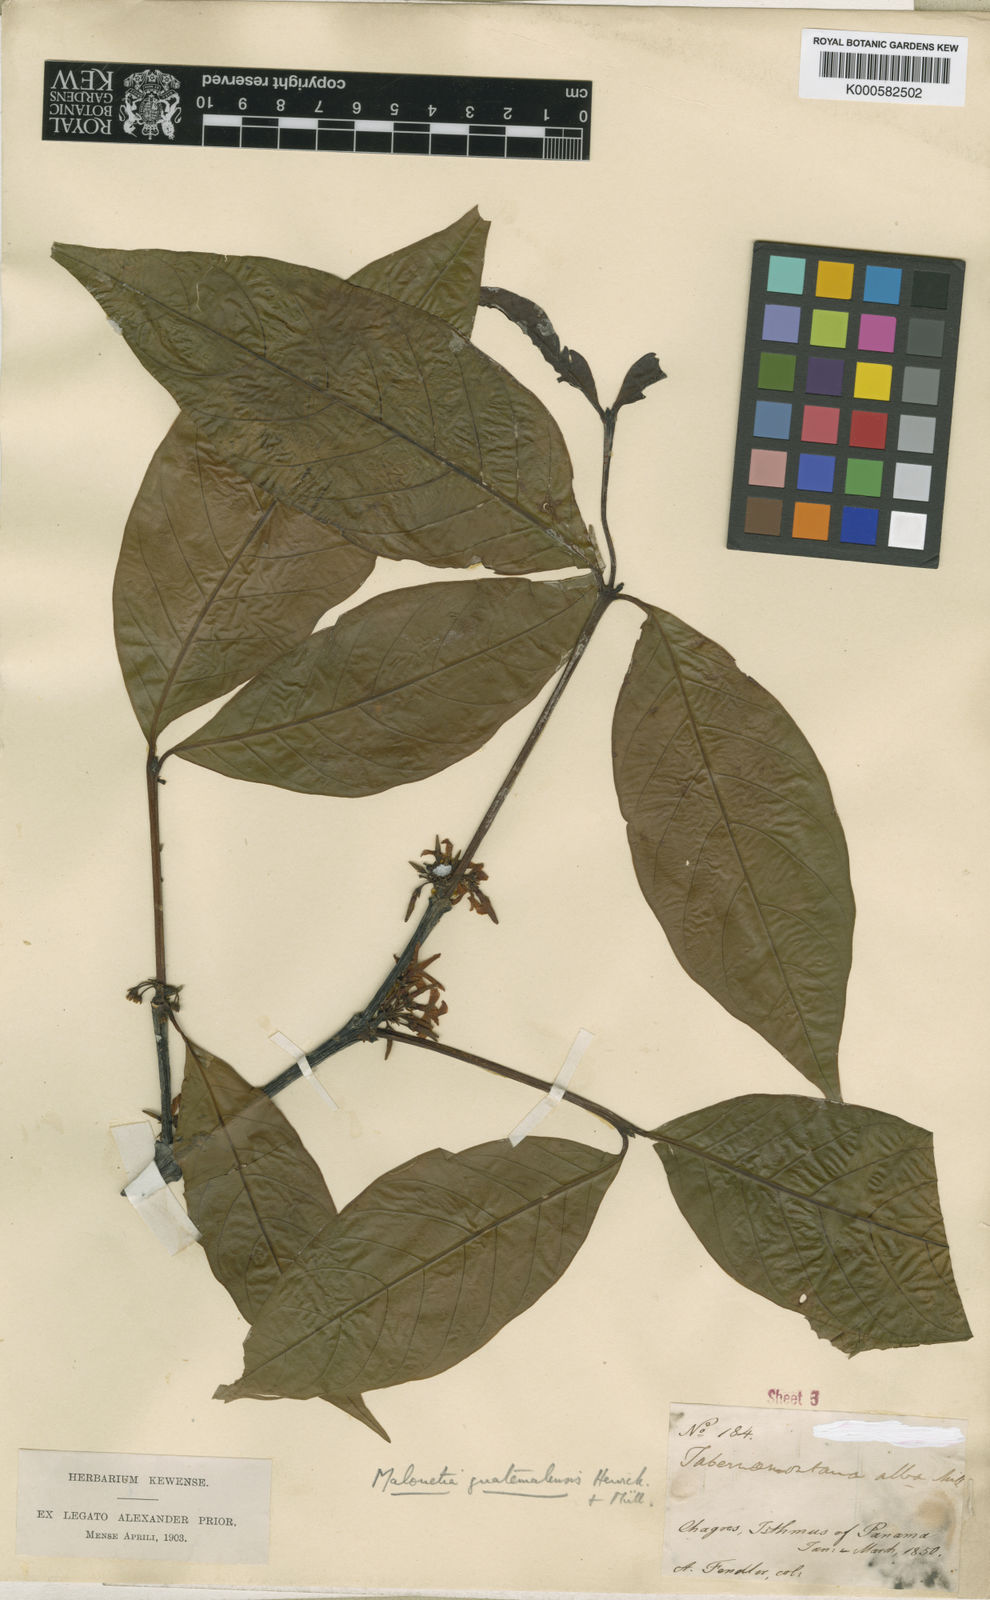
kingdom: Plantae
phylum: Tracheophyta
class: Magnoliopsida
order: Gentianales
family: Apocynaceae
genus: Malouetia
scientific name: Malouetia
